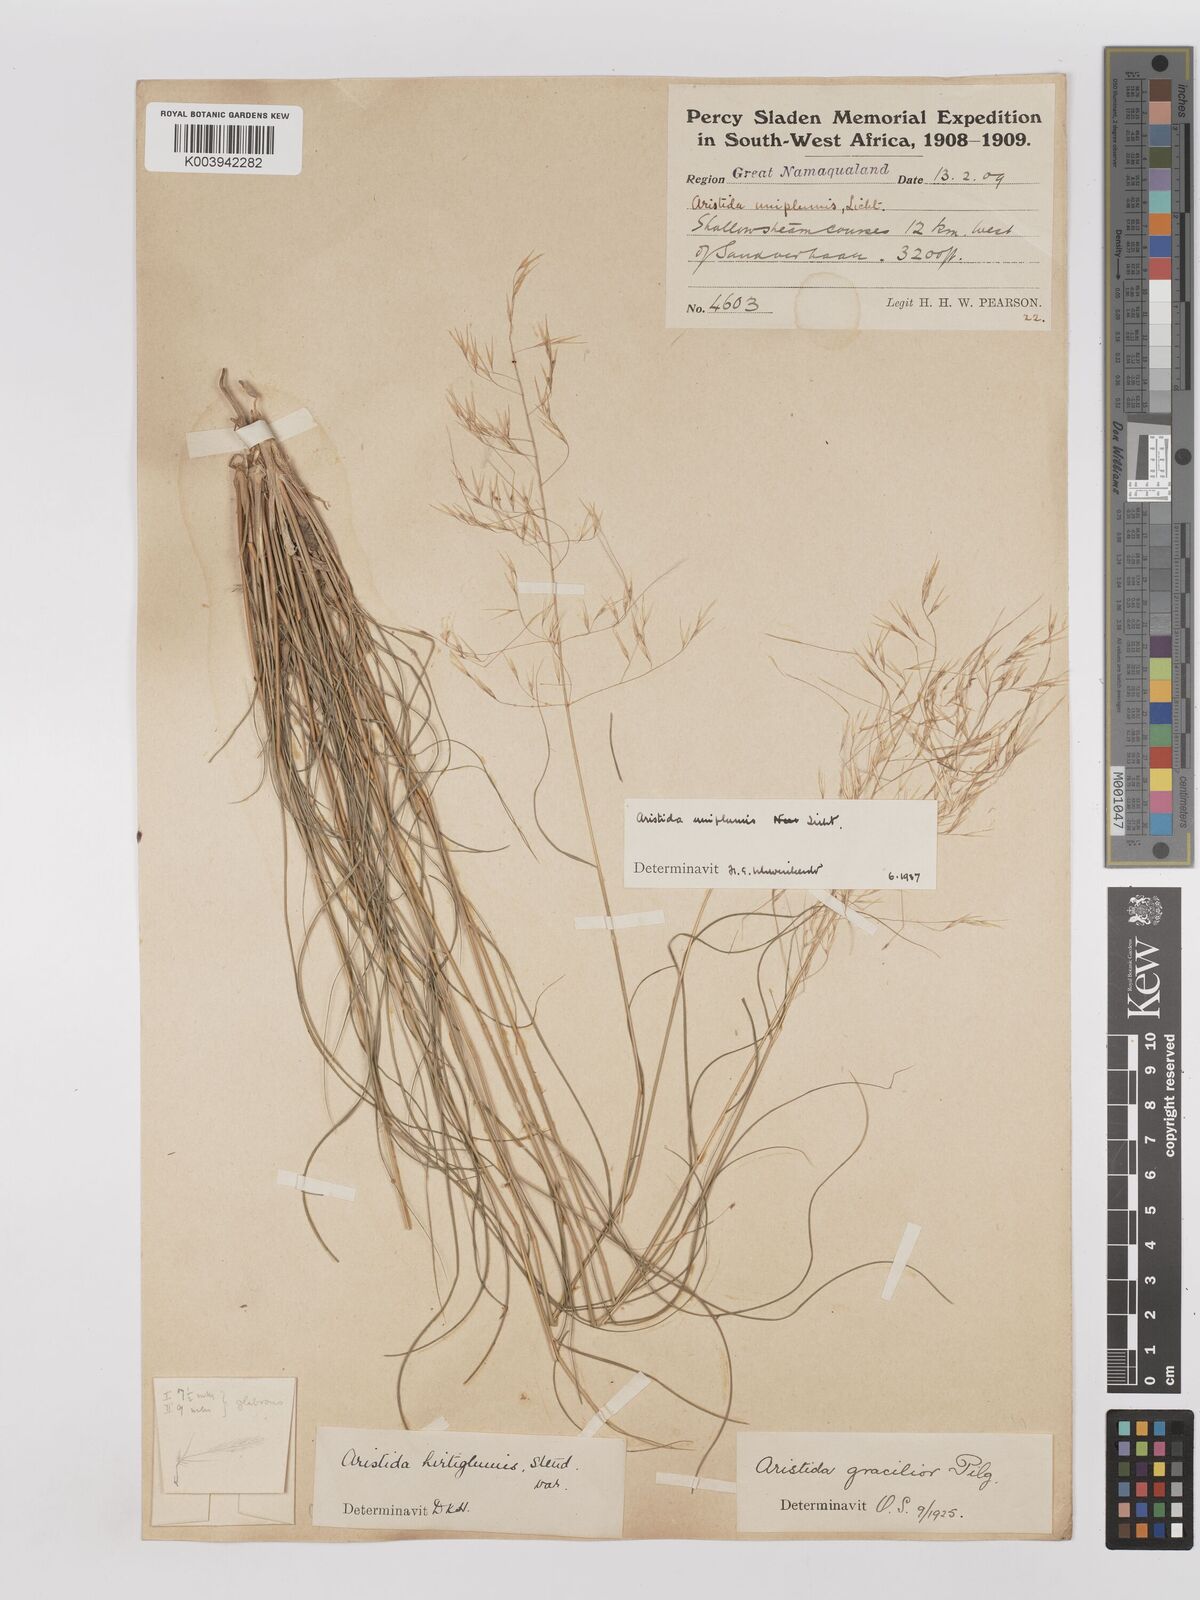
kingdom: Plantae
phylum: Tracheophyta
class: Liliopsida
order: Poales
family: Poaceae
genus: Stipagrostis
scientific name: Stipagrostis uniplumis
